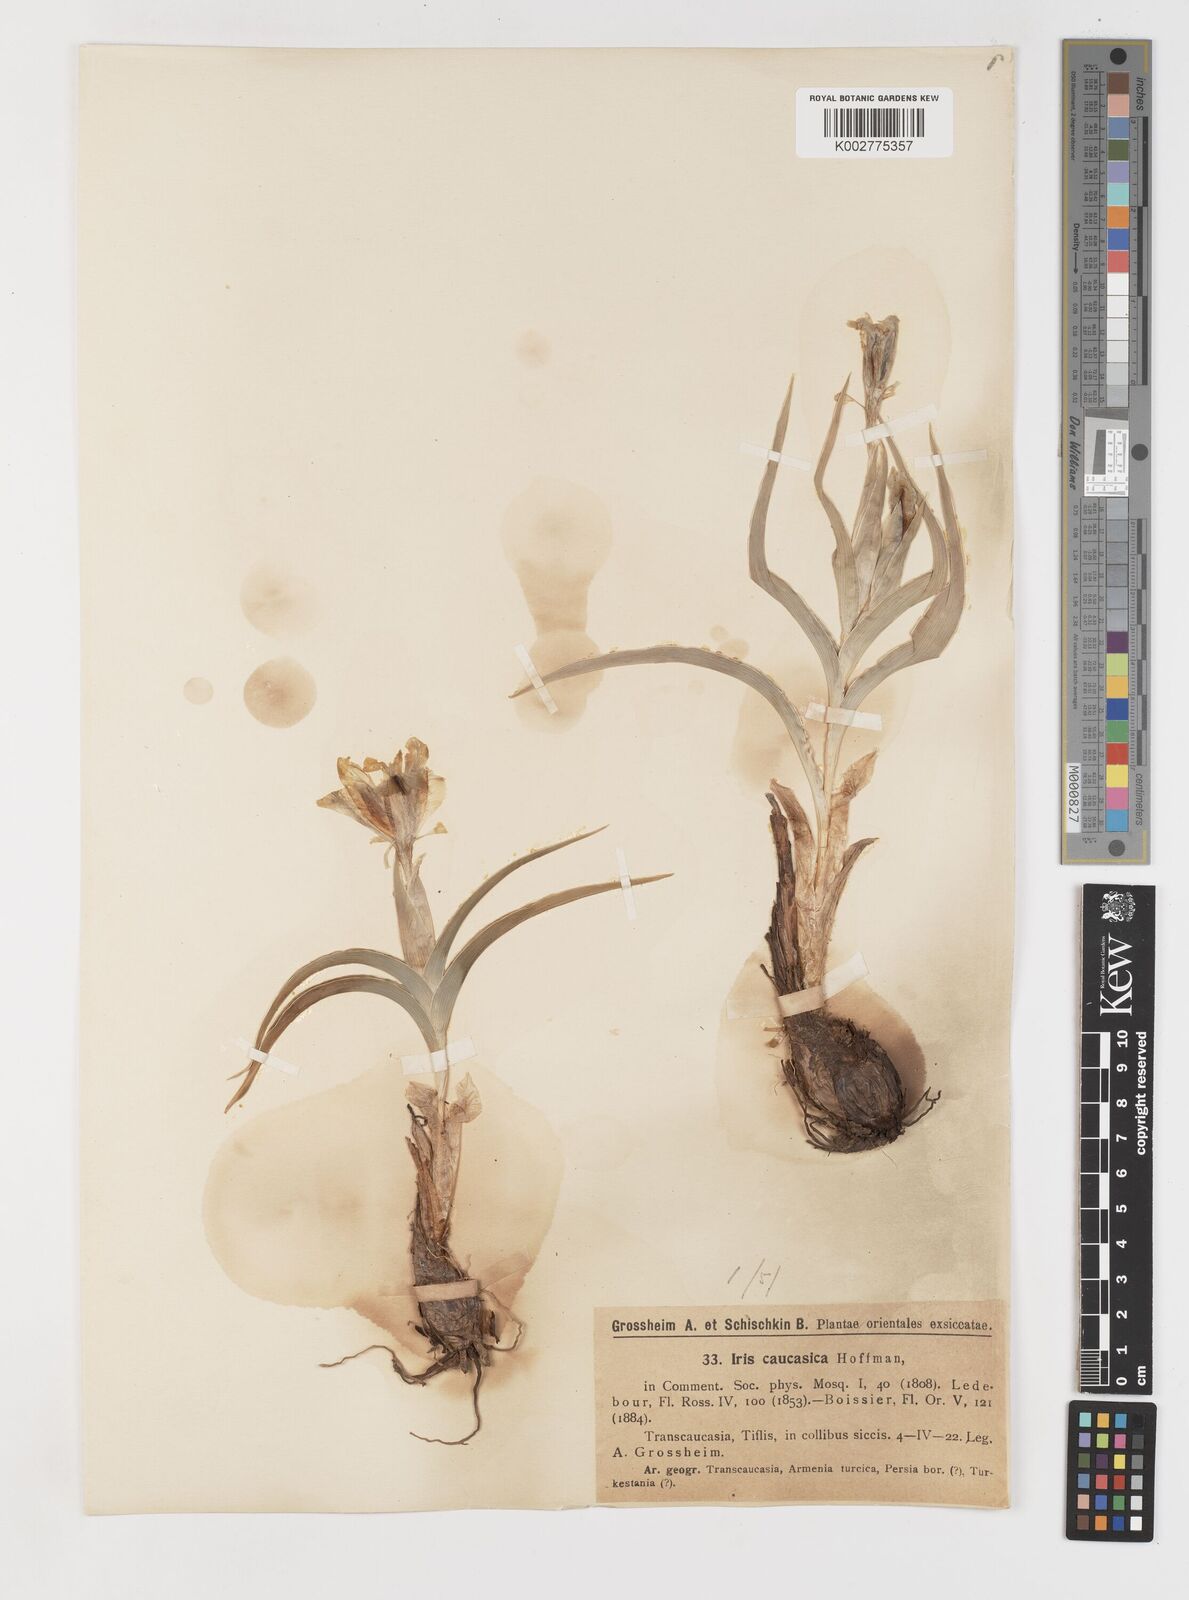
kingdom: Plantae
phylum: Tracheophyta
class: Liliopsida
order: Asparagales
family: Iridaceae
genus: Iris
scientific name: Iris caucasica
